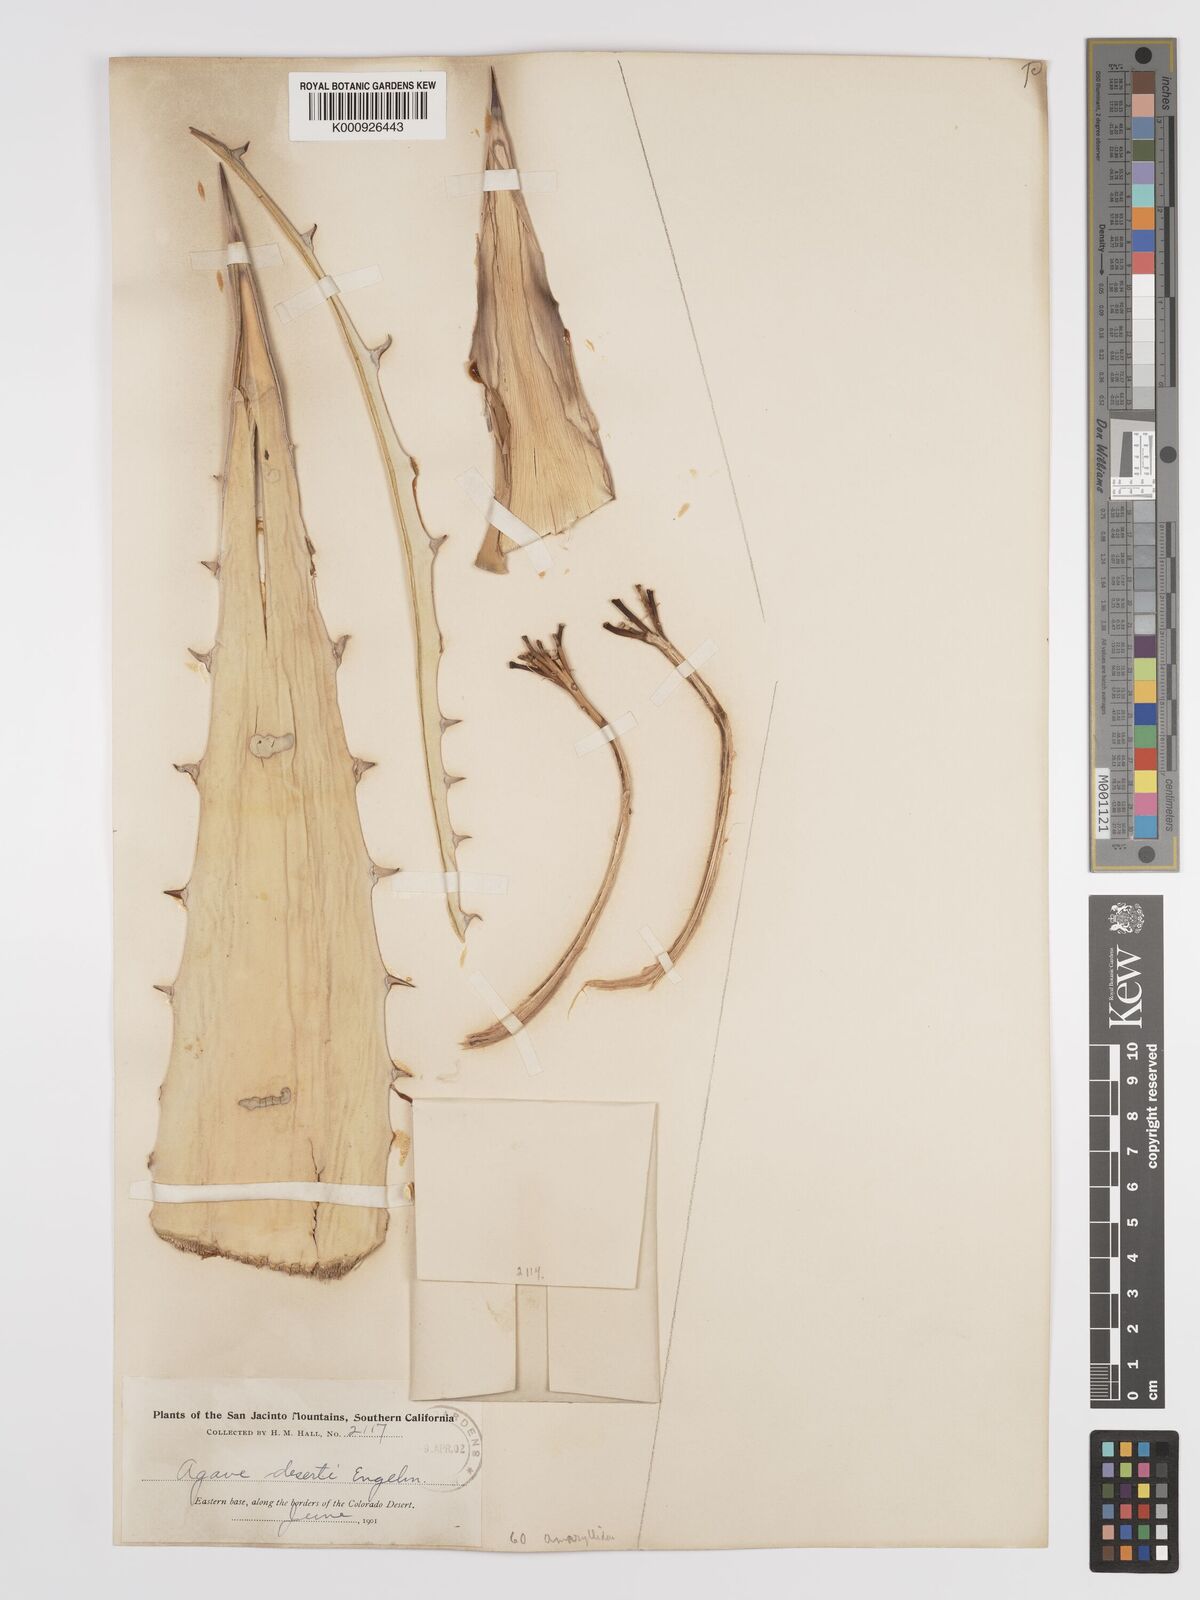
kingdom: Plantae
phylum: Tracheophyta
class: Liliopsida
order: Asparagales
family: Asparagaceae
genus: Agave
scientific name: Agave deserti
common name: Desert agave
